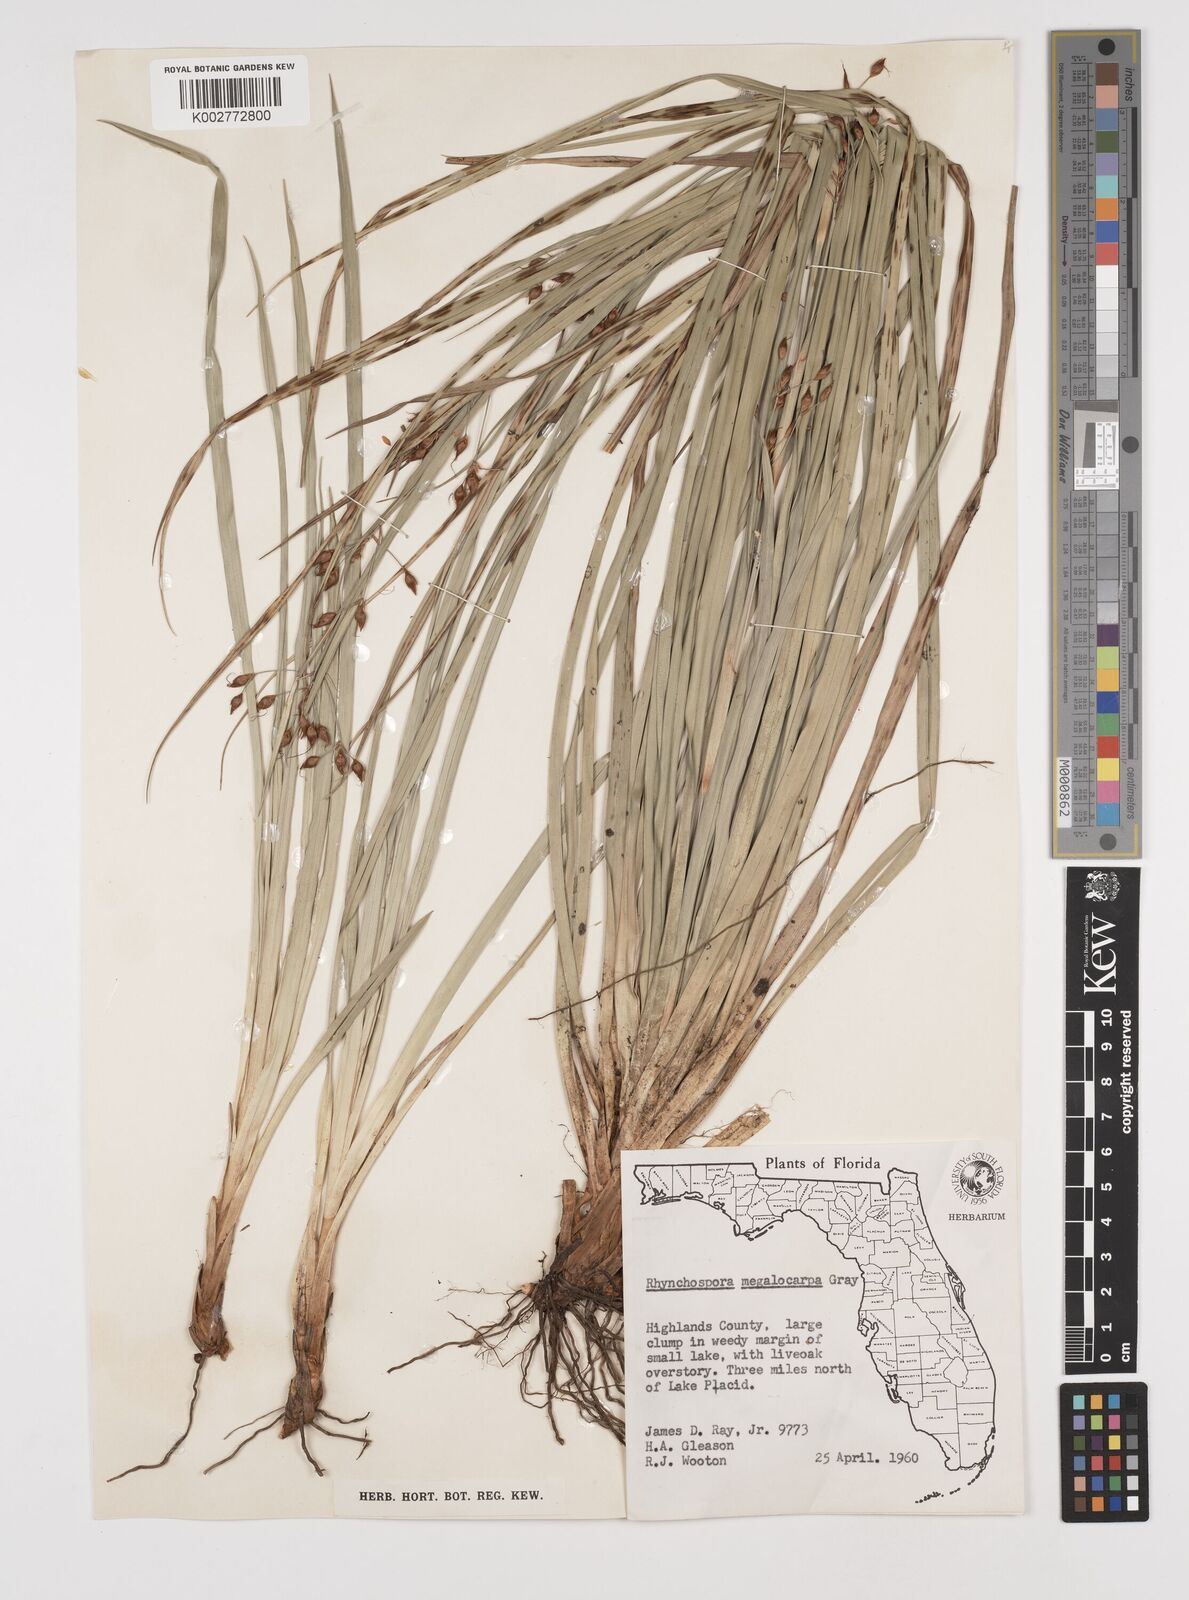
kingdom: Plantae
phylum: Tracheophyta
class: Liliopsida
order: Poales
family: Cyperaceae
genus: Rhynchospora
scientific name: Rhynchospora megalocarpa
